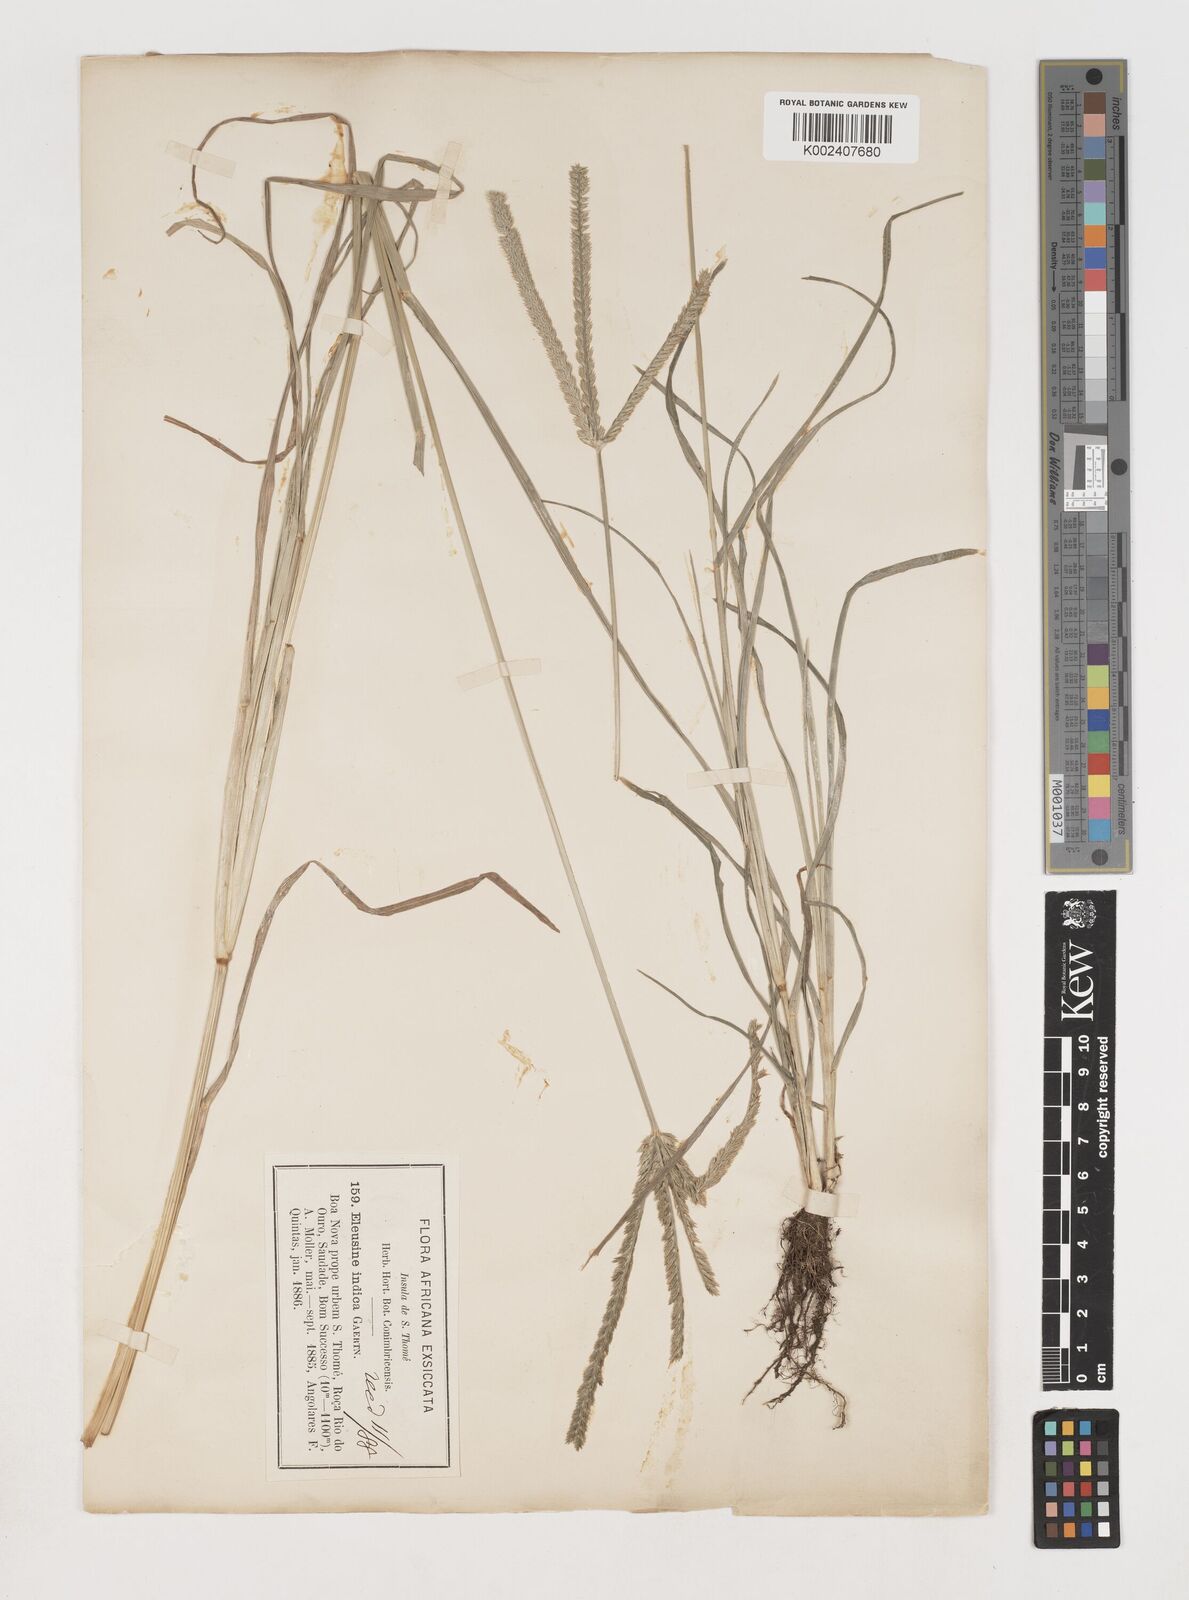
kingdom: Plantae
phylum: Tracheophyta
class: Liliopsida
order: Poales
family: Poaceae
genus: Eleusine
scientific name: Eleusine indica
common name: Yard-grass
